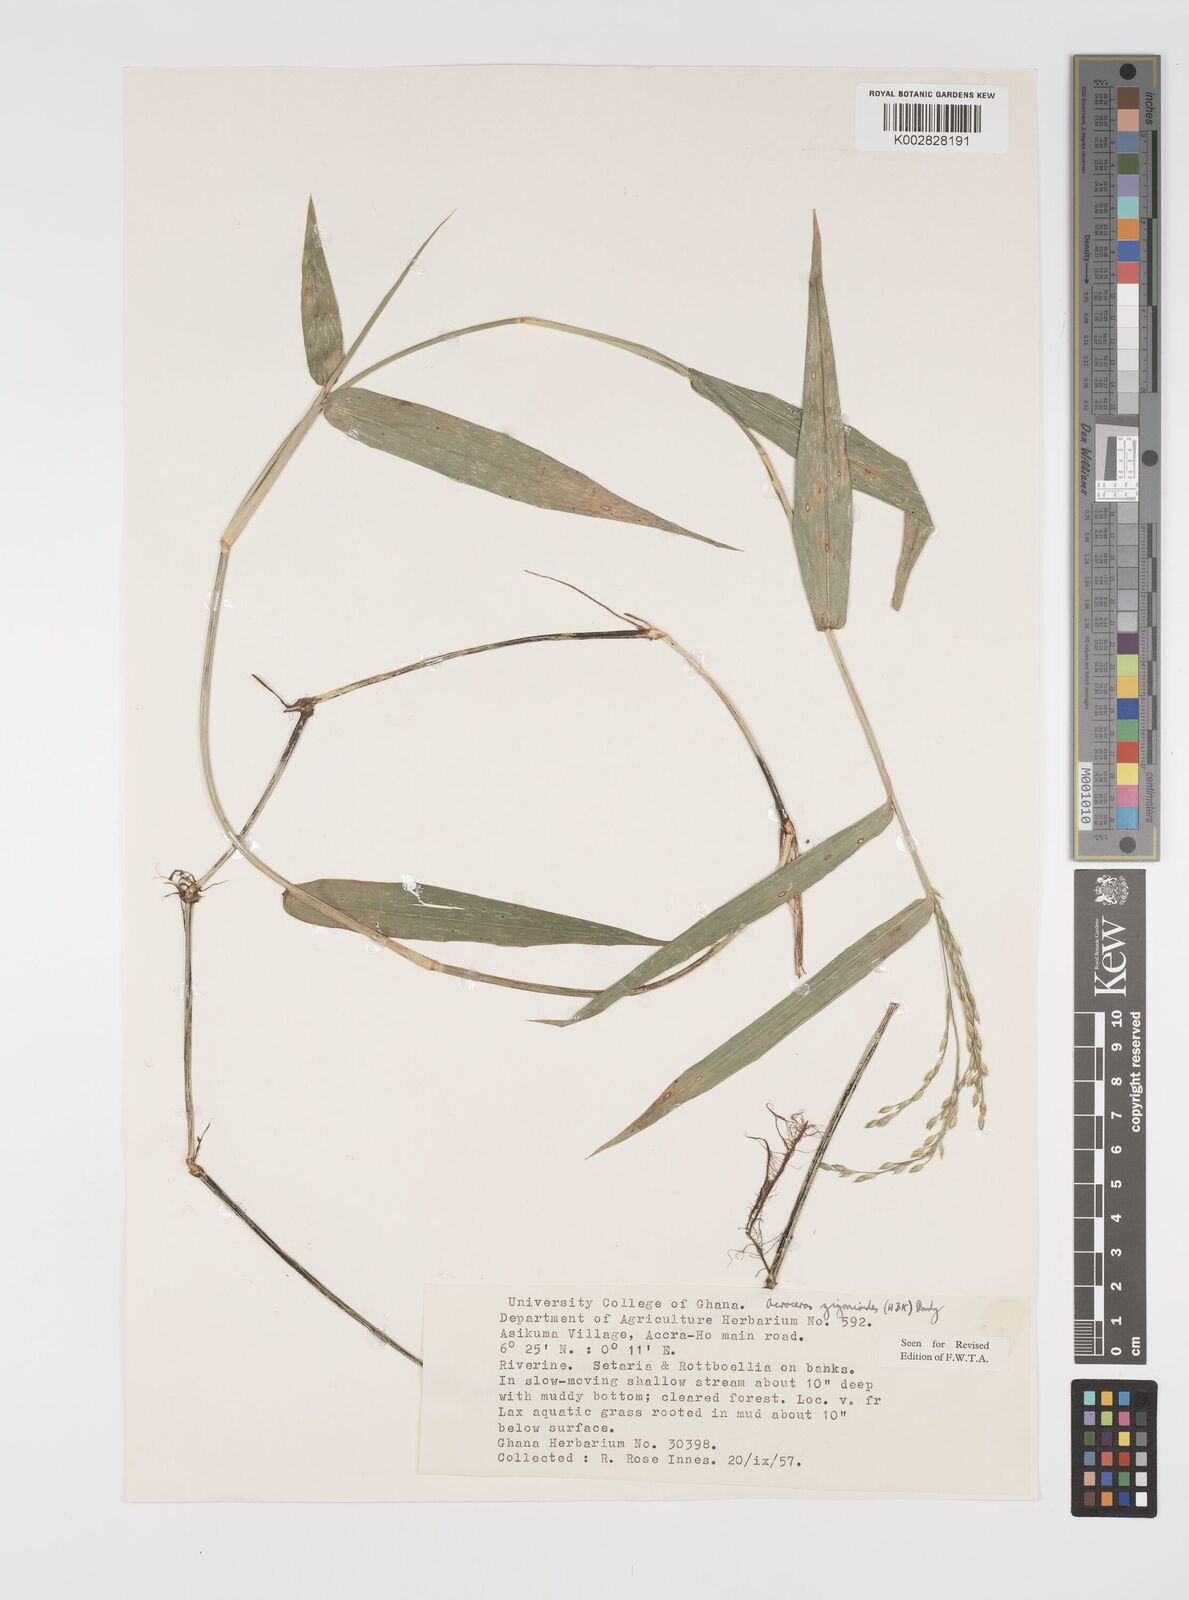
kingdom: Plantae
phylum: Tracheophyta
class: Liliopsida
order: Poales
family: Poaceae
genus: Acroceras
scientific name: Acroceras zizanioides
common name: Oat grass
